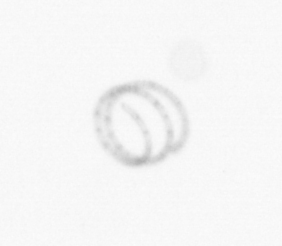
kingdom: Chromista
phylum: Ochrophyta
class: Bacillariophyceae
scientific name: Bacillariophyceae
